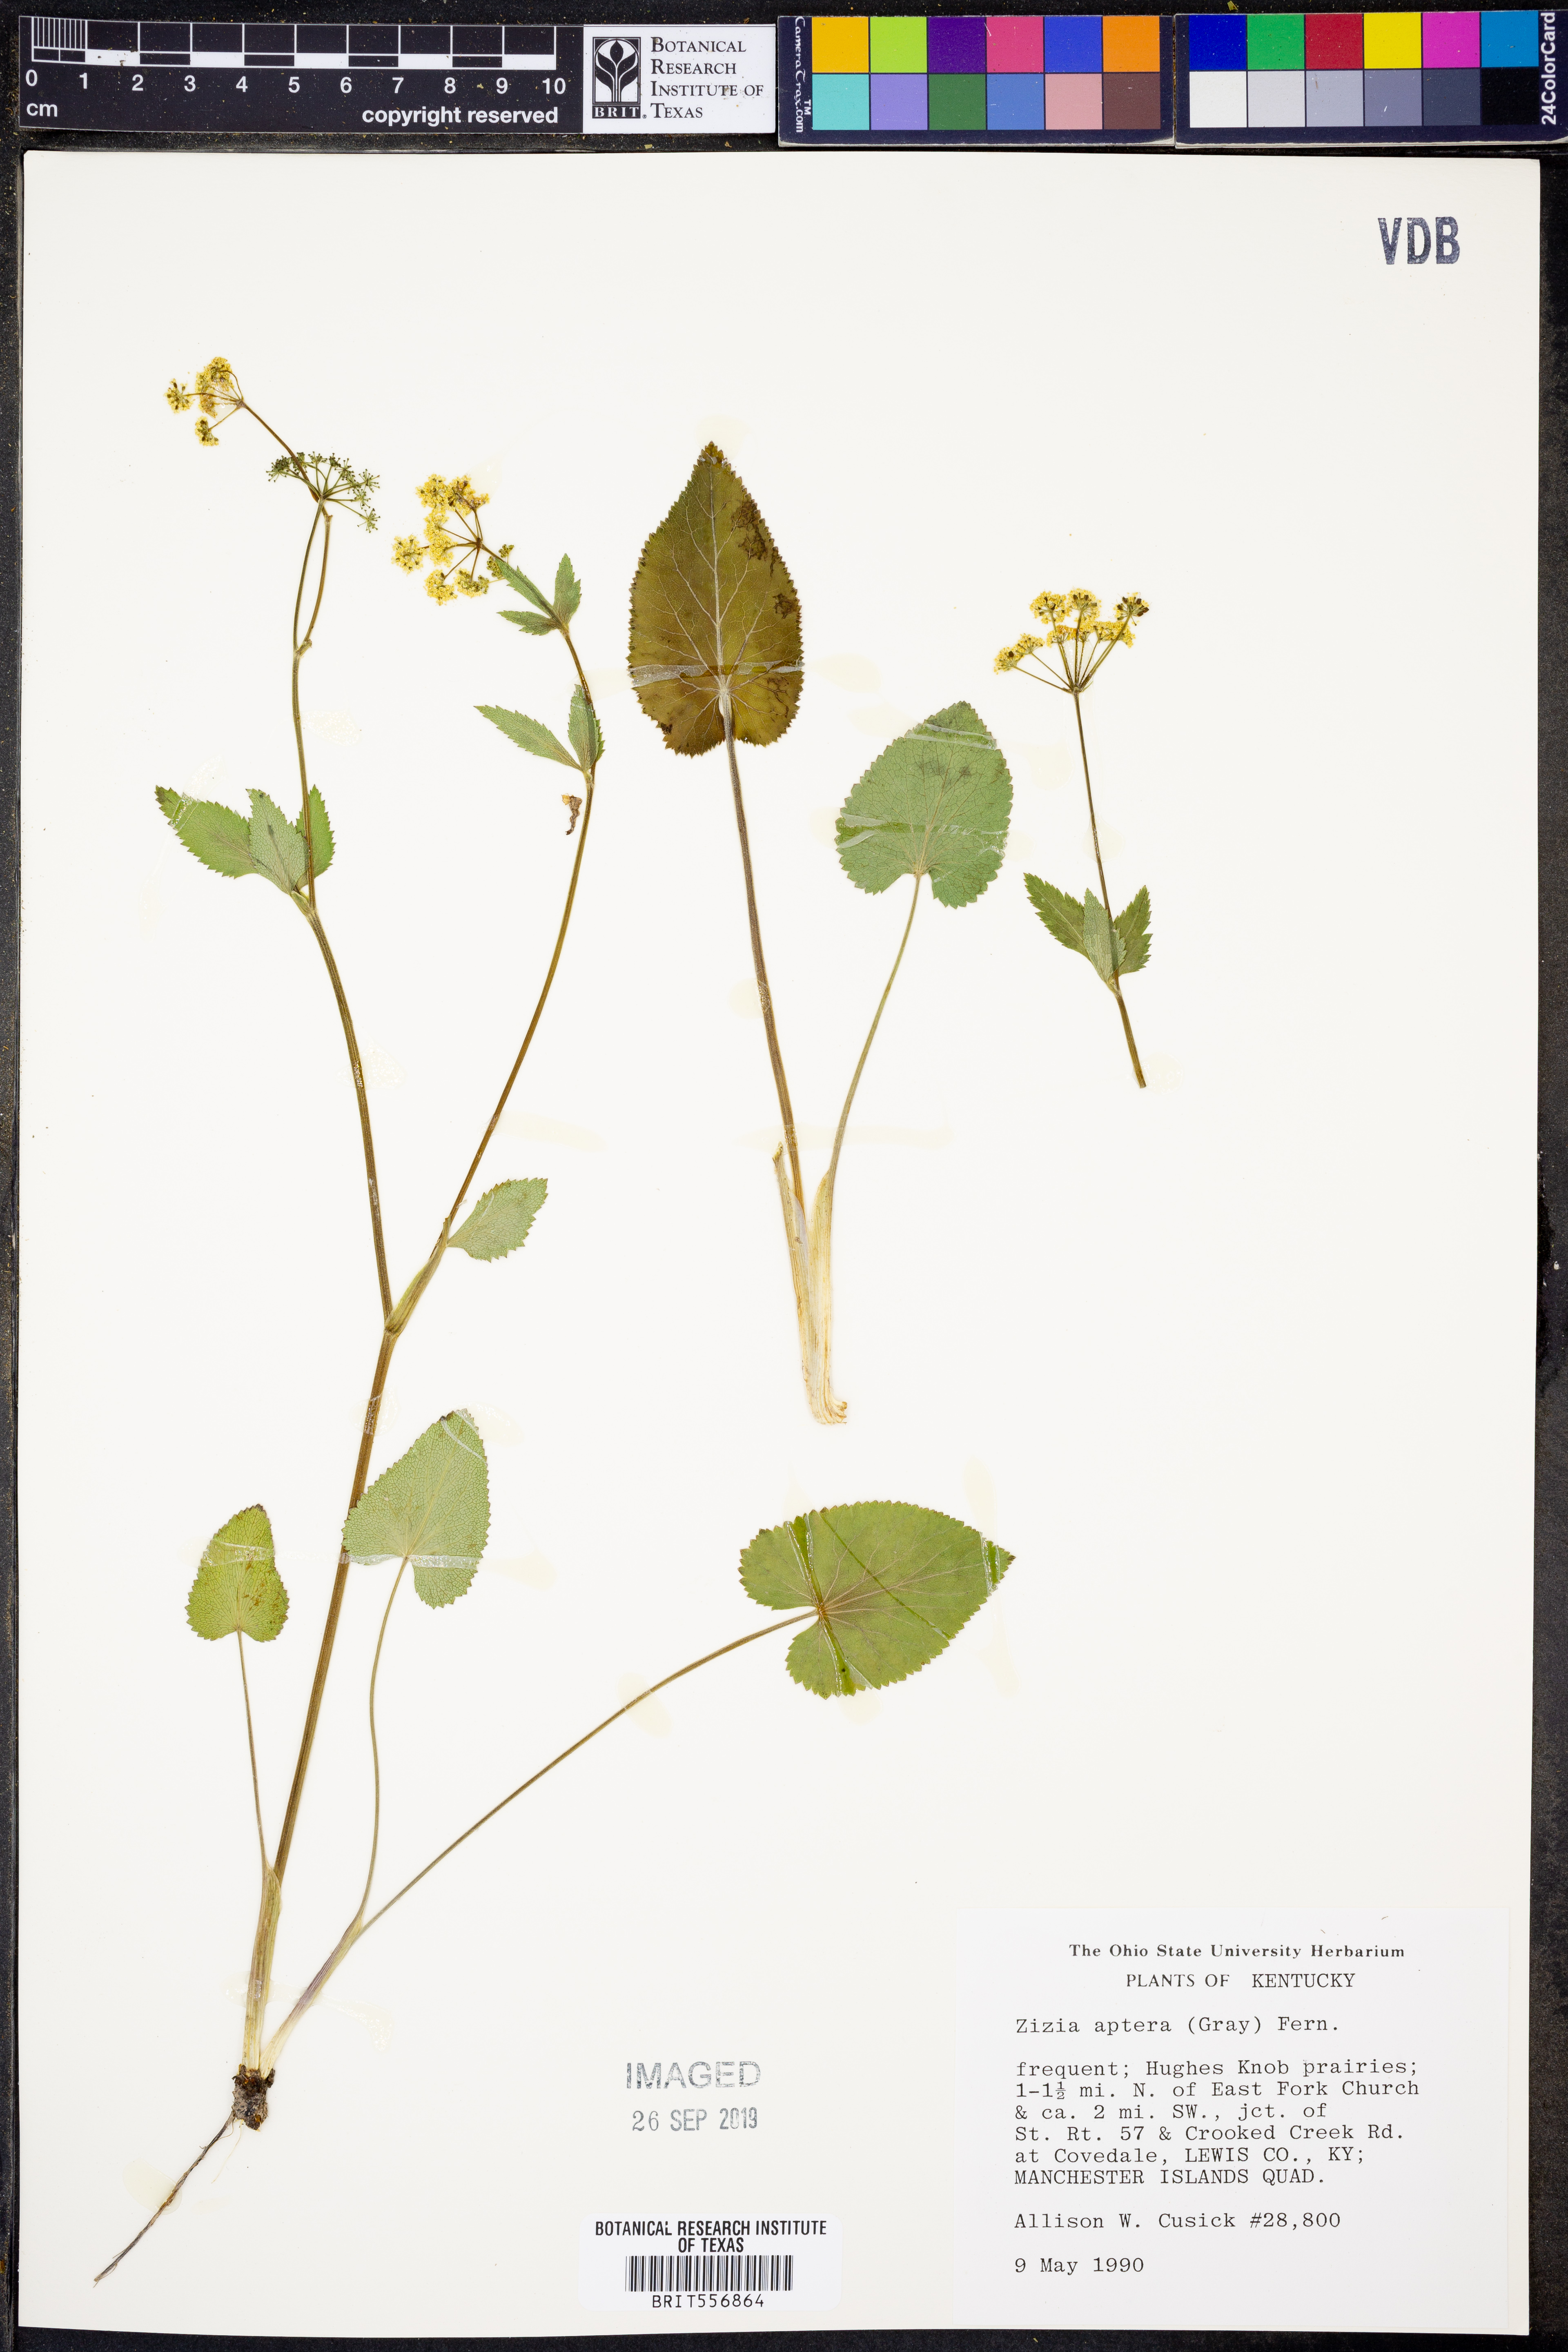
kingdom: Plantae
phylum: Tracheophyta
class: Magnoliopsida
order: Apiales
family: Apiaceae
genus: Zizia
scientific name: Zizia aptera
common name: Heart-leaved alexanders
